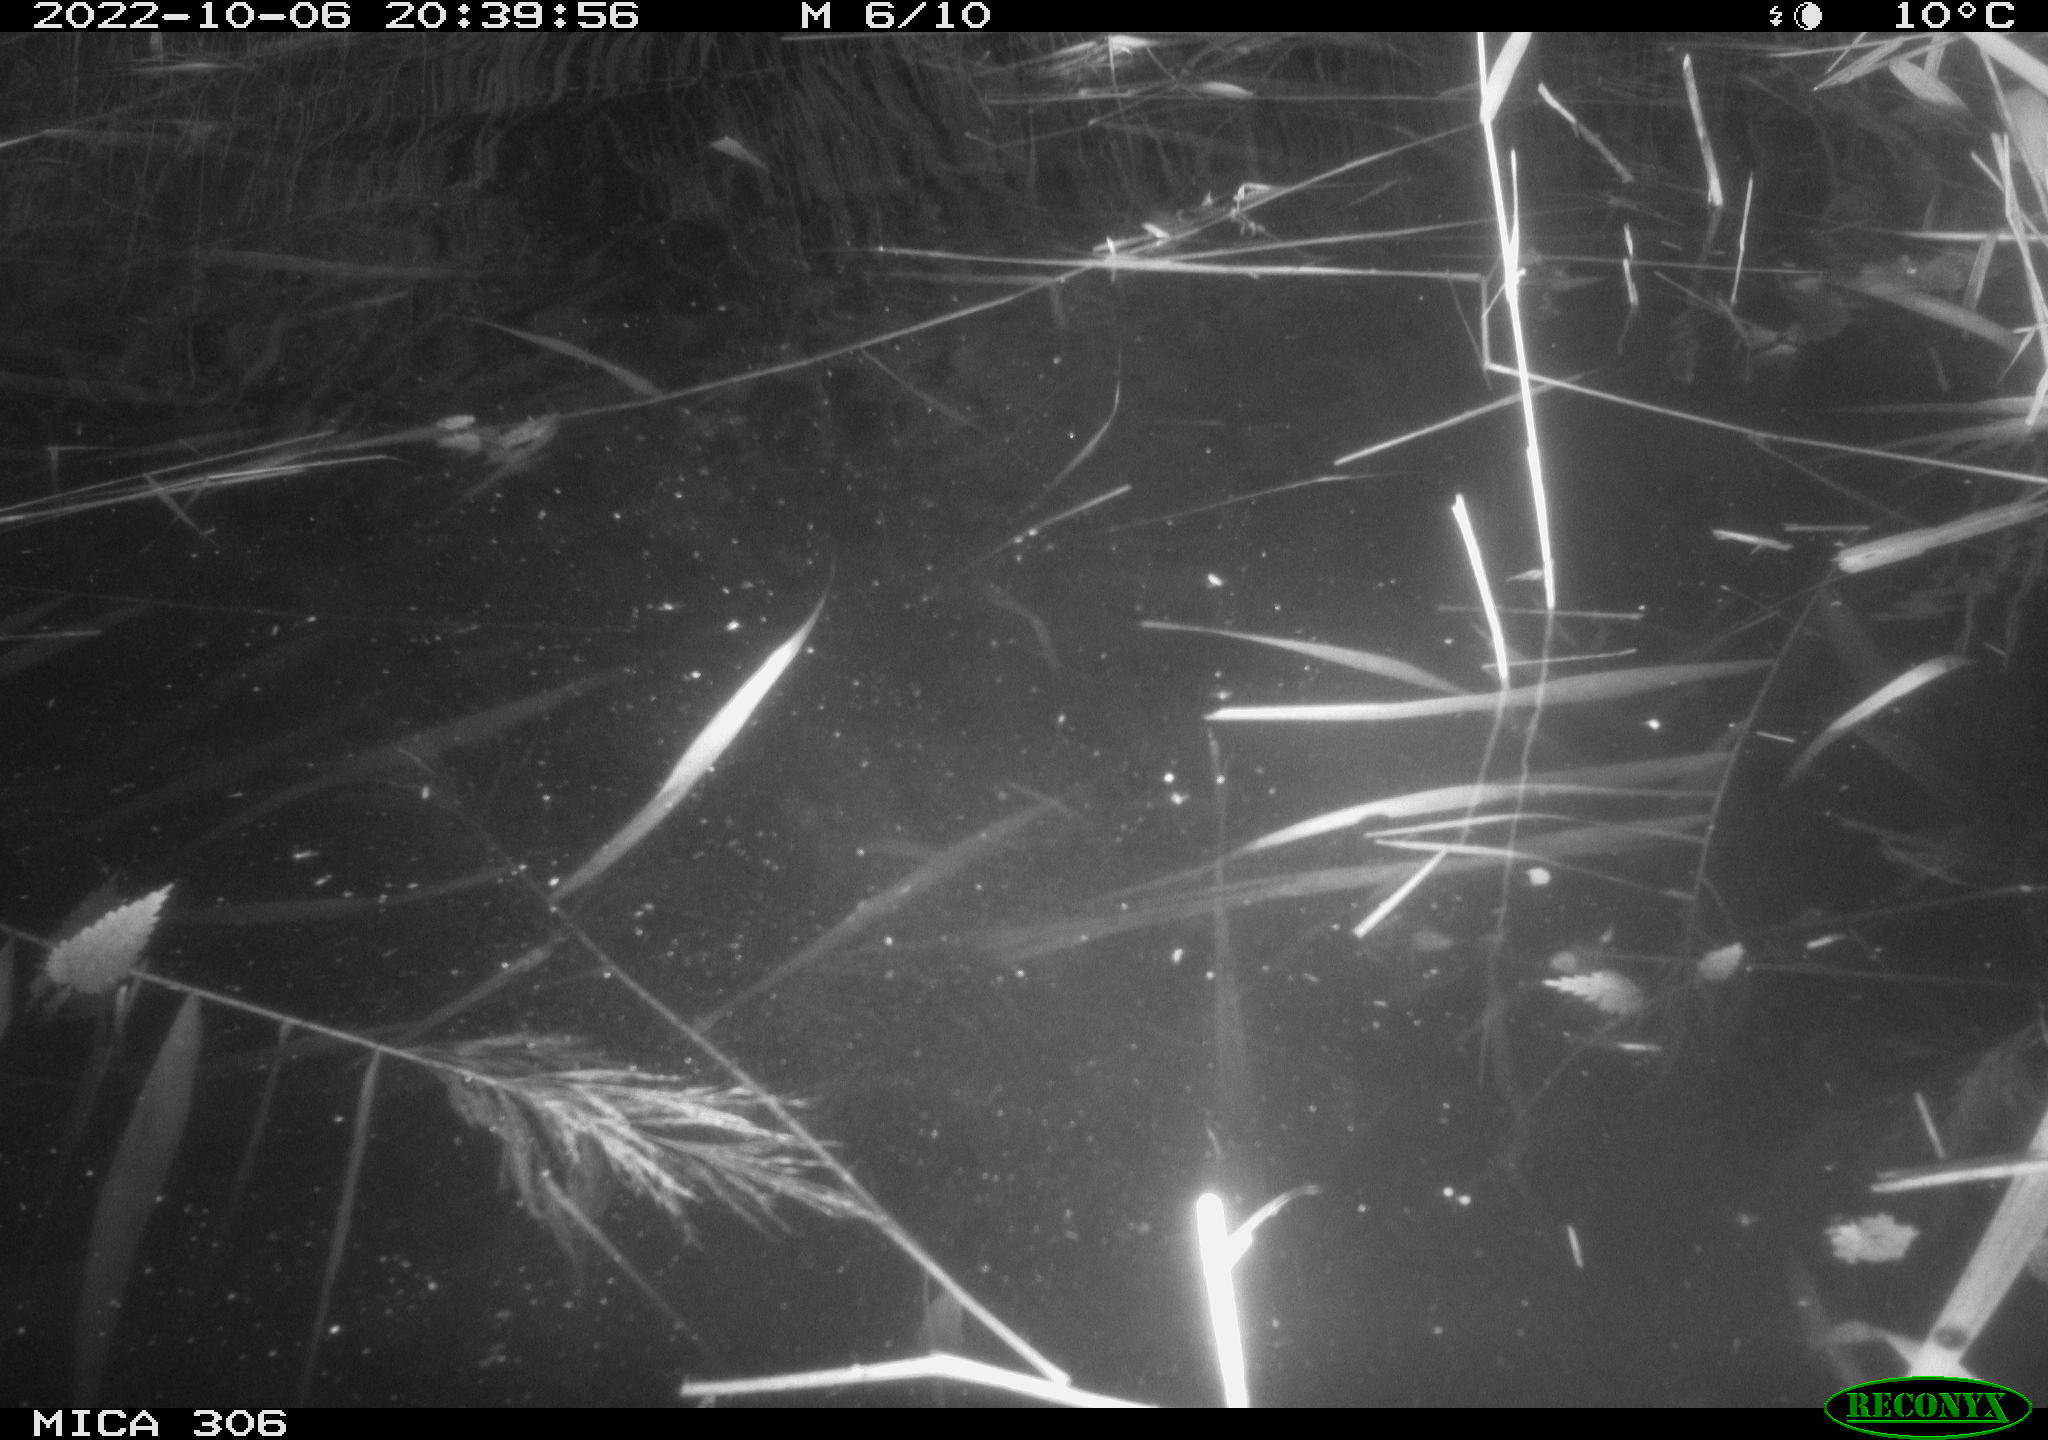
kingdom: Animalia
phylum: Chordata
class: Mammalia
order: Rodentia
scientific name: Rodentia
